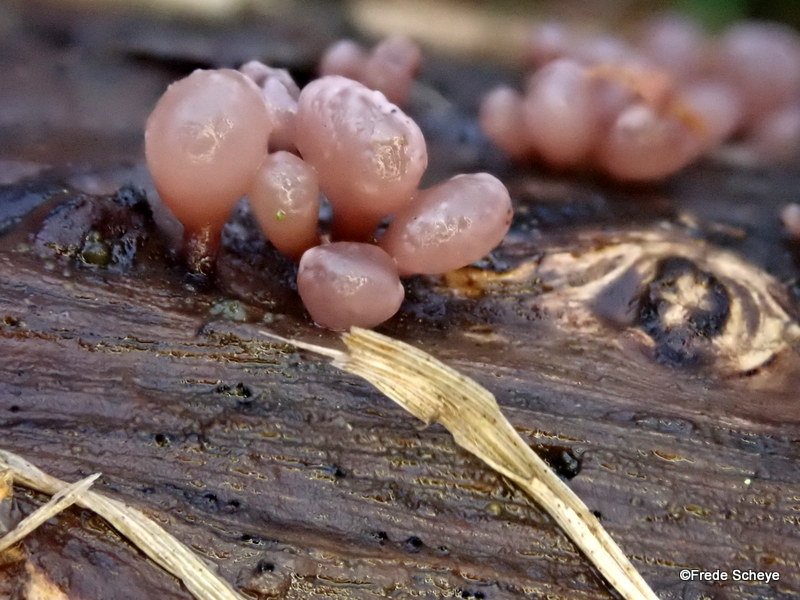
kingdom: Fungi
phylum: Ascomycota
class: Leotiomycetes
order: Helotiales
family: Gelatinodiscaceae
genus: Ascocoryne
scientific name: Ascocoryne sarcoides
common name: rødlilla sejskive
